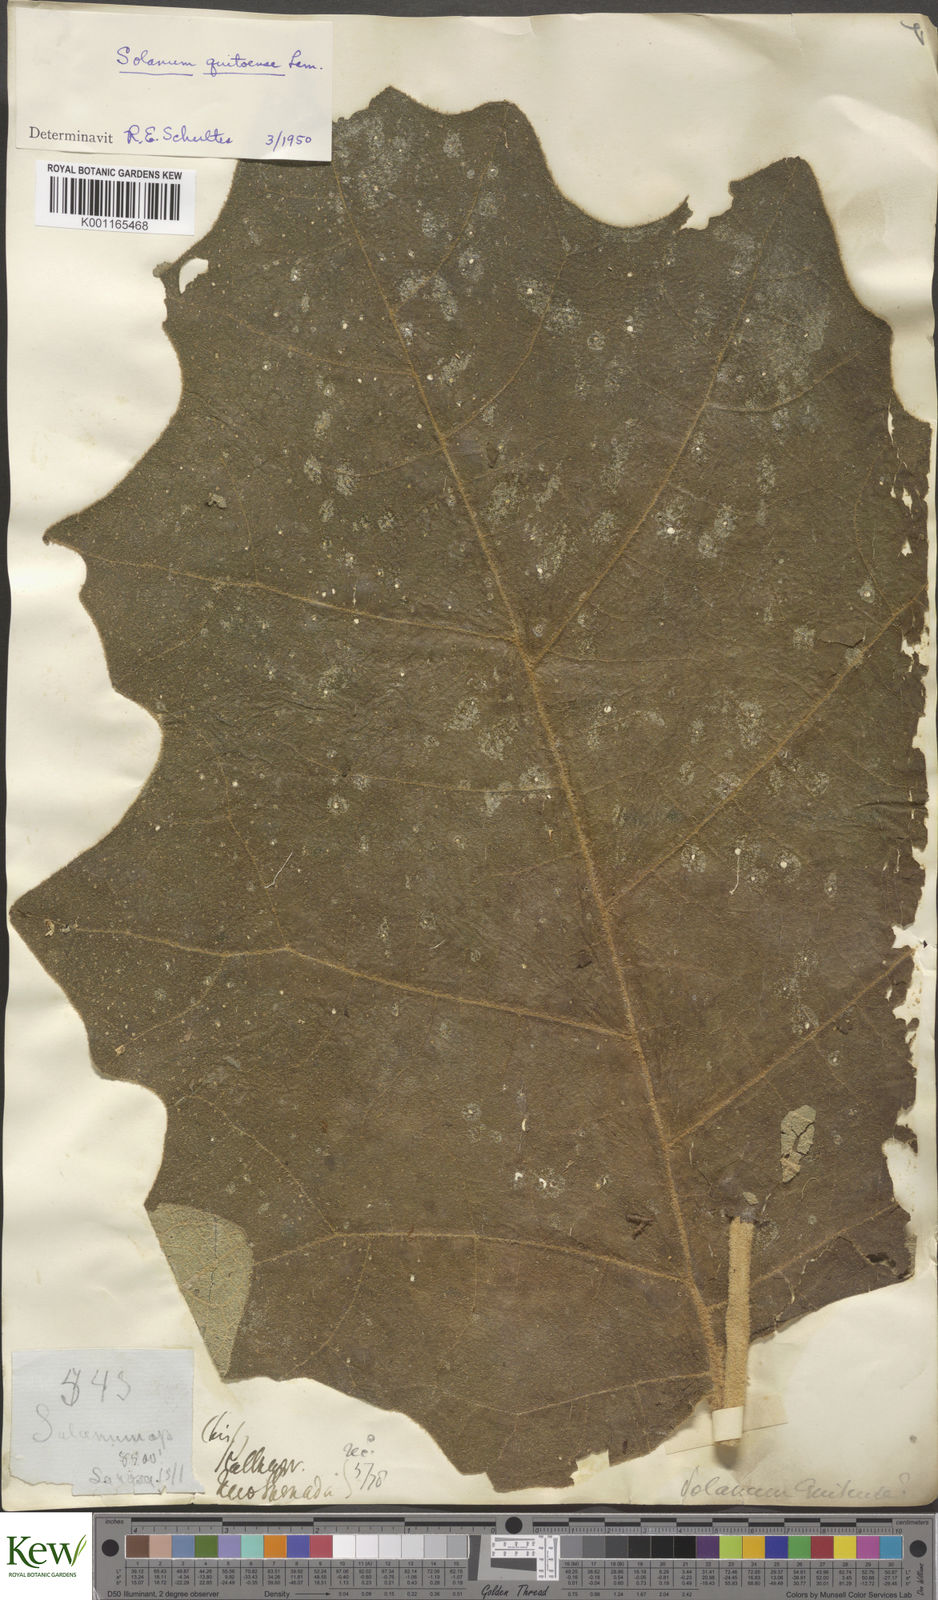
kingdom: Plantae
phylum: Tracheophyta
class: Magnoliopsida
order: Solanales
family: Solanaceae
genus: Solanum
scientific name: Solanum quitoense
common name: Quito-orange
